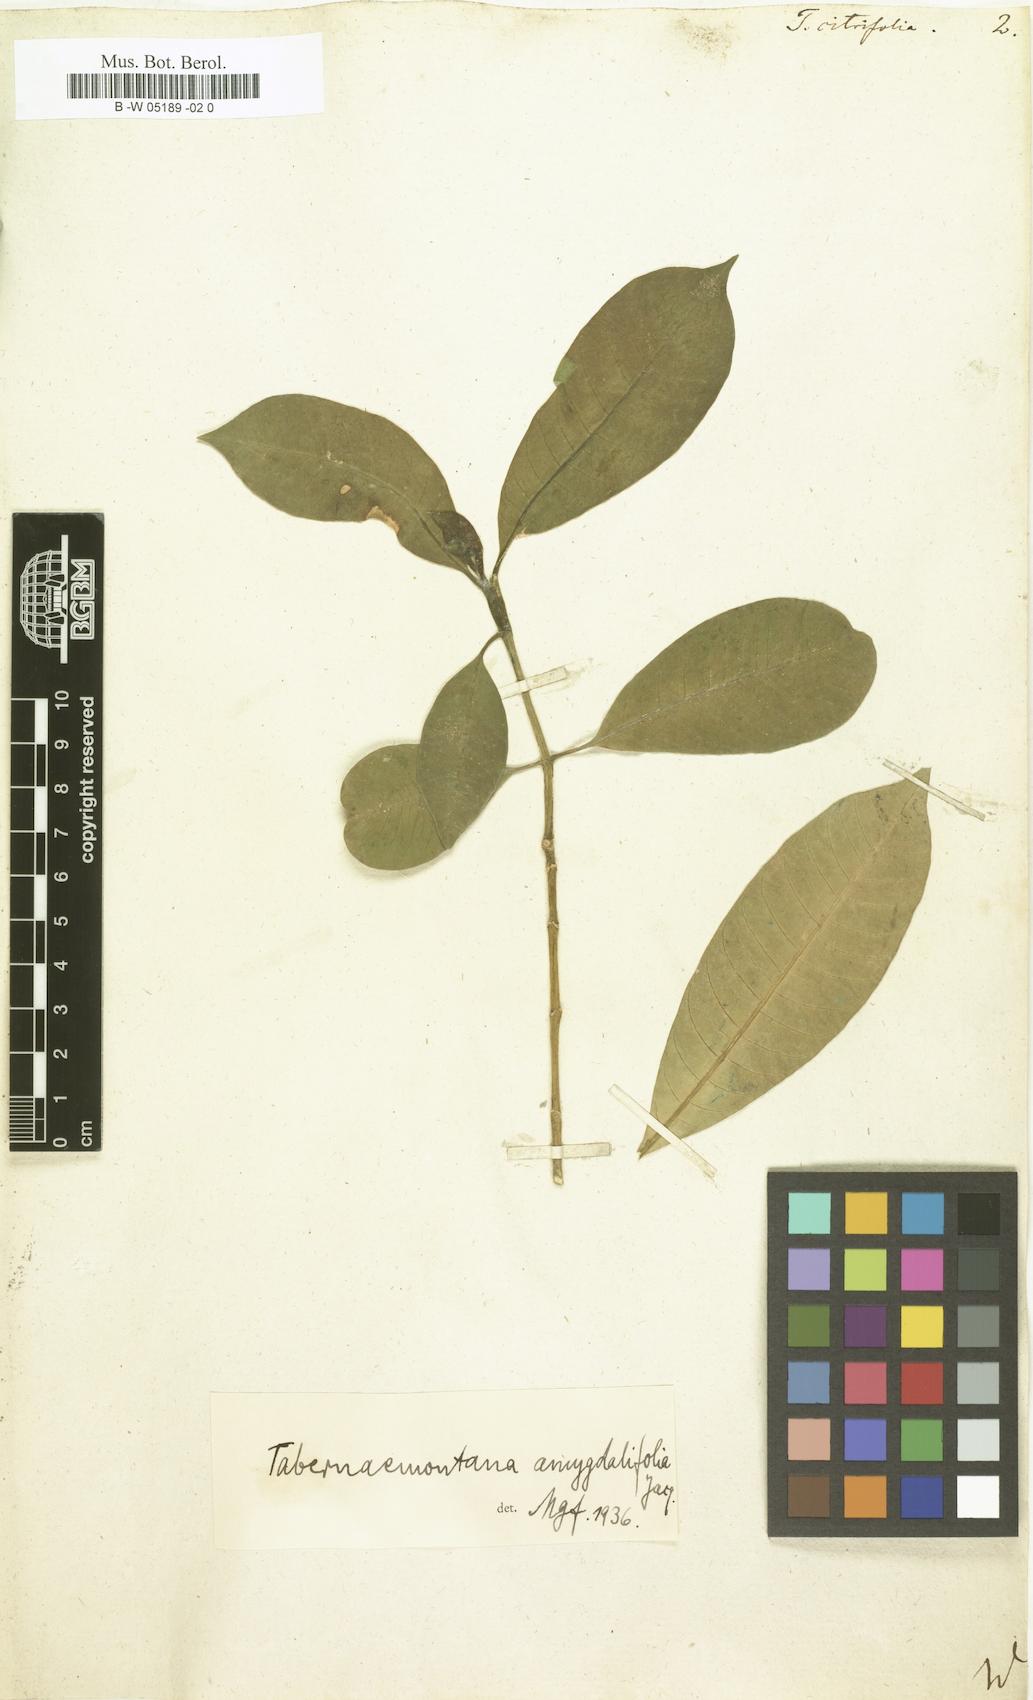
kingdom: Plantae
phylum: Tracheophyta
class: Magnoliopsida
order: Gentianales
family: Apocynaceae
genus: Tabernaemontana
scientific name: Tabernaemontana citrifolia
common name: Milky tree
